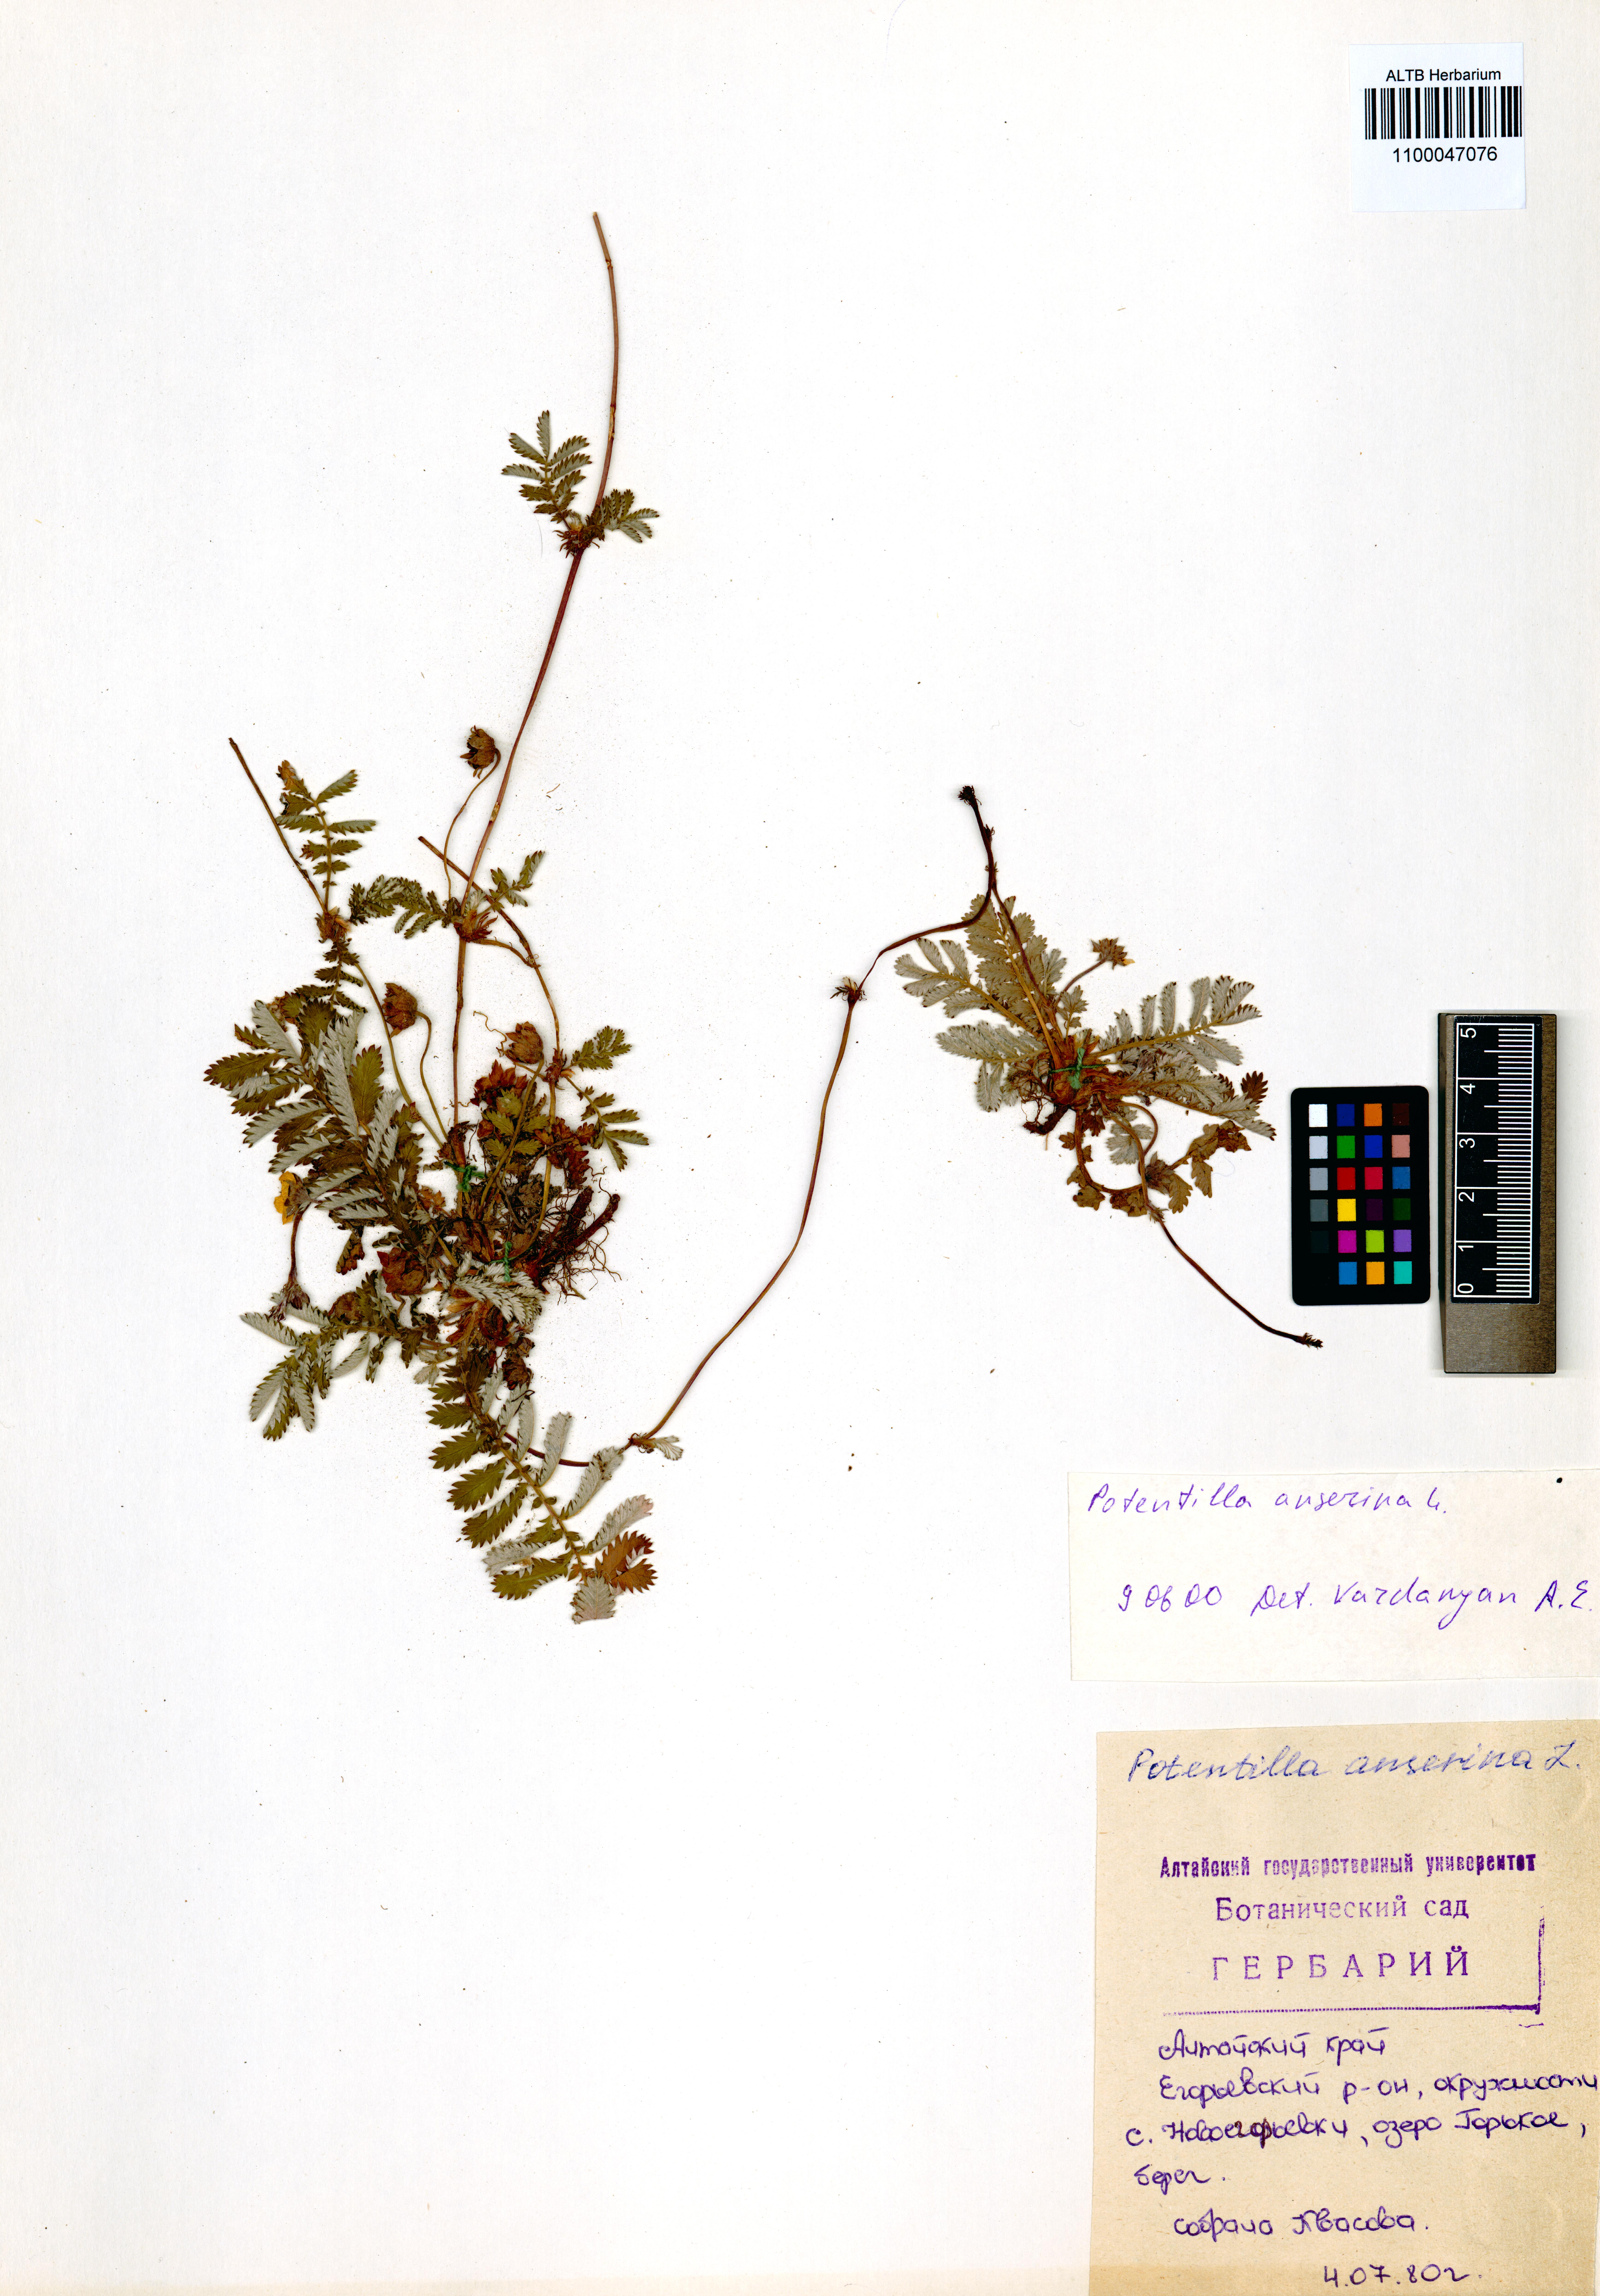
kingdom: Plantae
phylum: Tracheophyta
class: Magnoliopsida
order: Rosales
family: Rosaceae
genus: Argentina
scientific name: Argentina anserina
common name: Common silverweed
